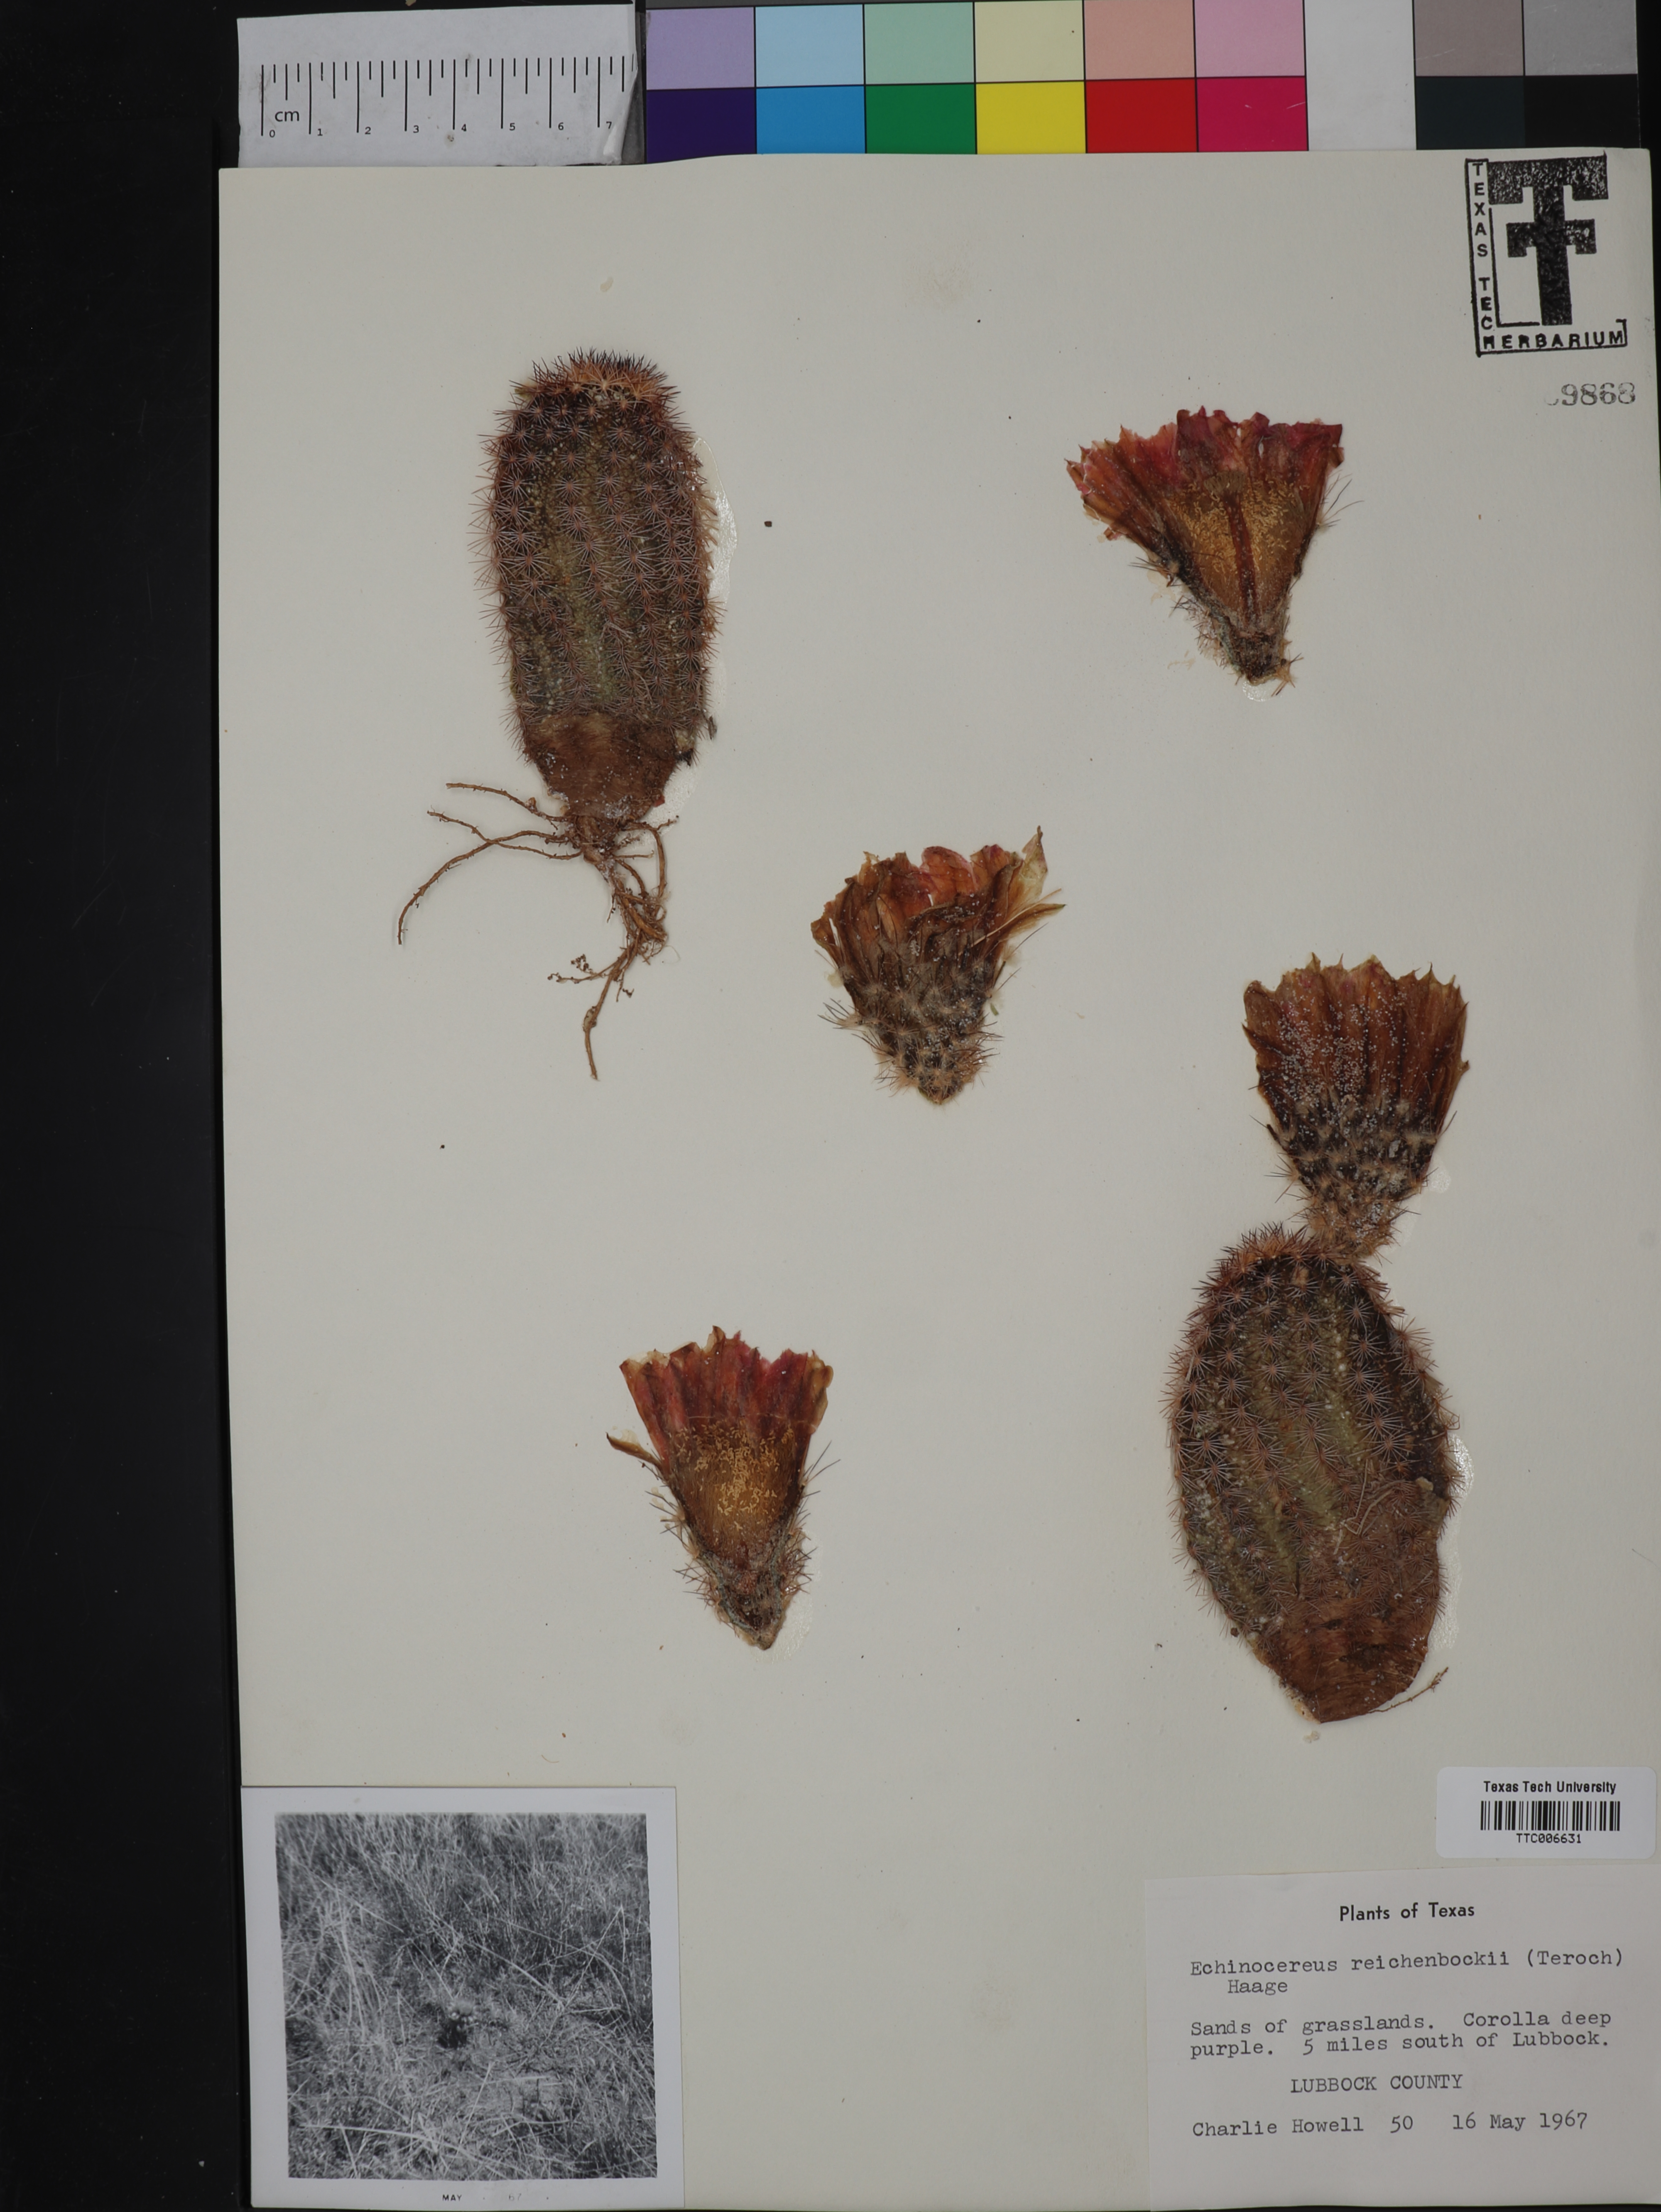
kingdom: Plantae
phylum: Tracheophyta
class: Magnoliopsida
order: Caryophyllales
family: Cactaceae
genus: Echinocereus
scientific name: Echinocereus reichenbachii
